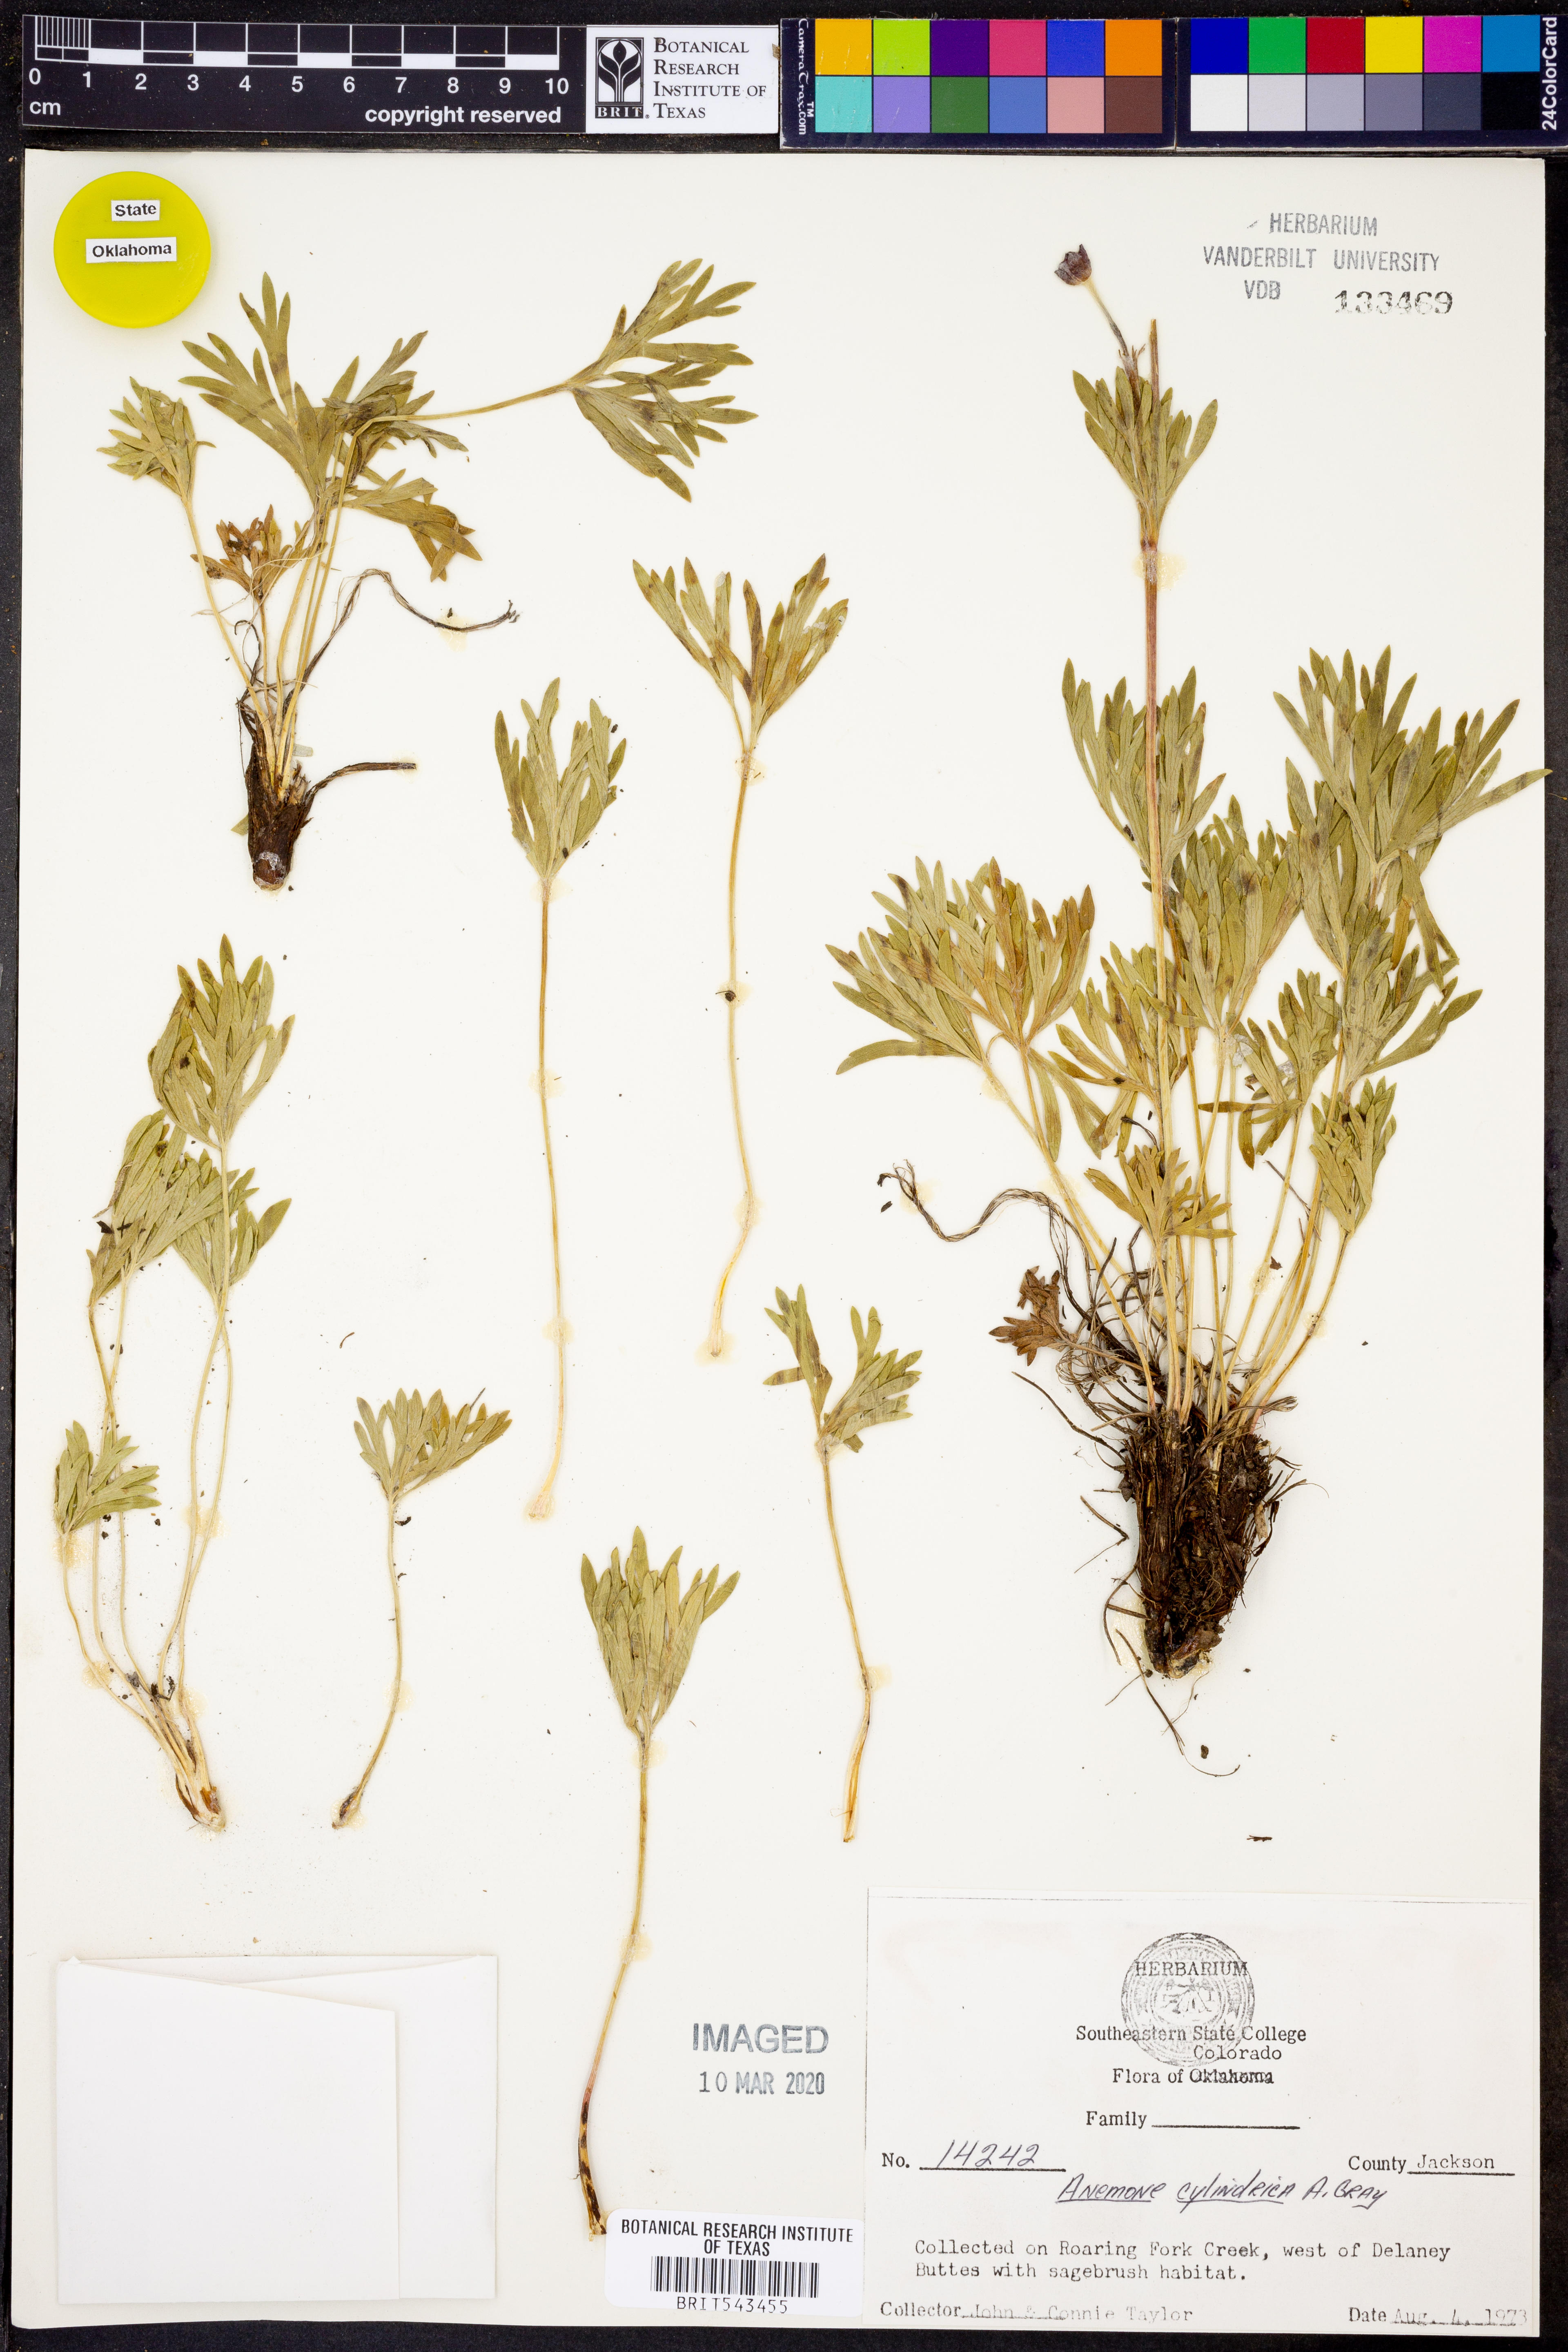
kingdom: Plantae
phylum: Tracheophyta
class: Magnoliopsida
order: Ranunculales
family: Ranunculaceae
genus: Anemone
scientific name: Anemone cylindrica
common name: Candle anemone
